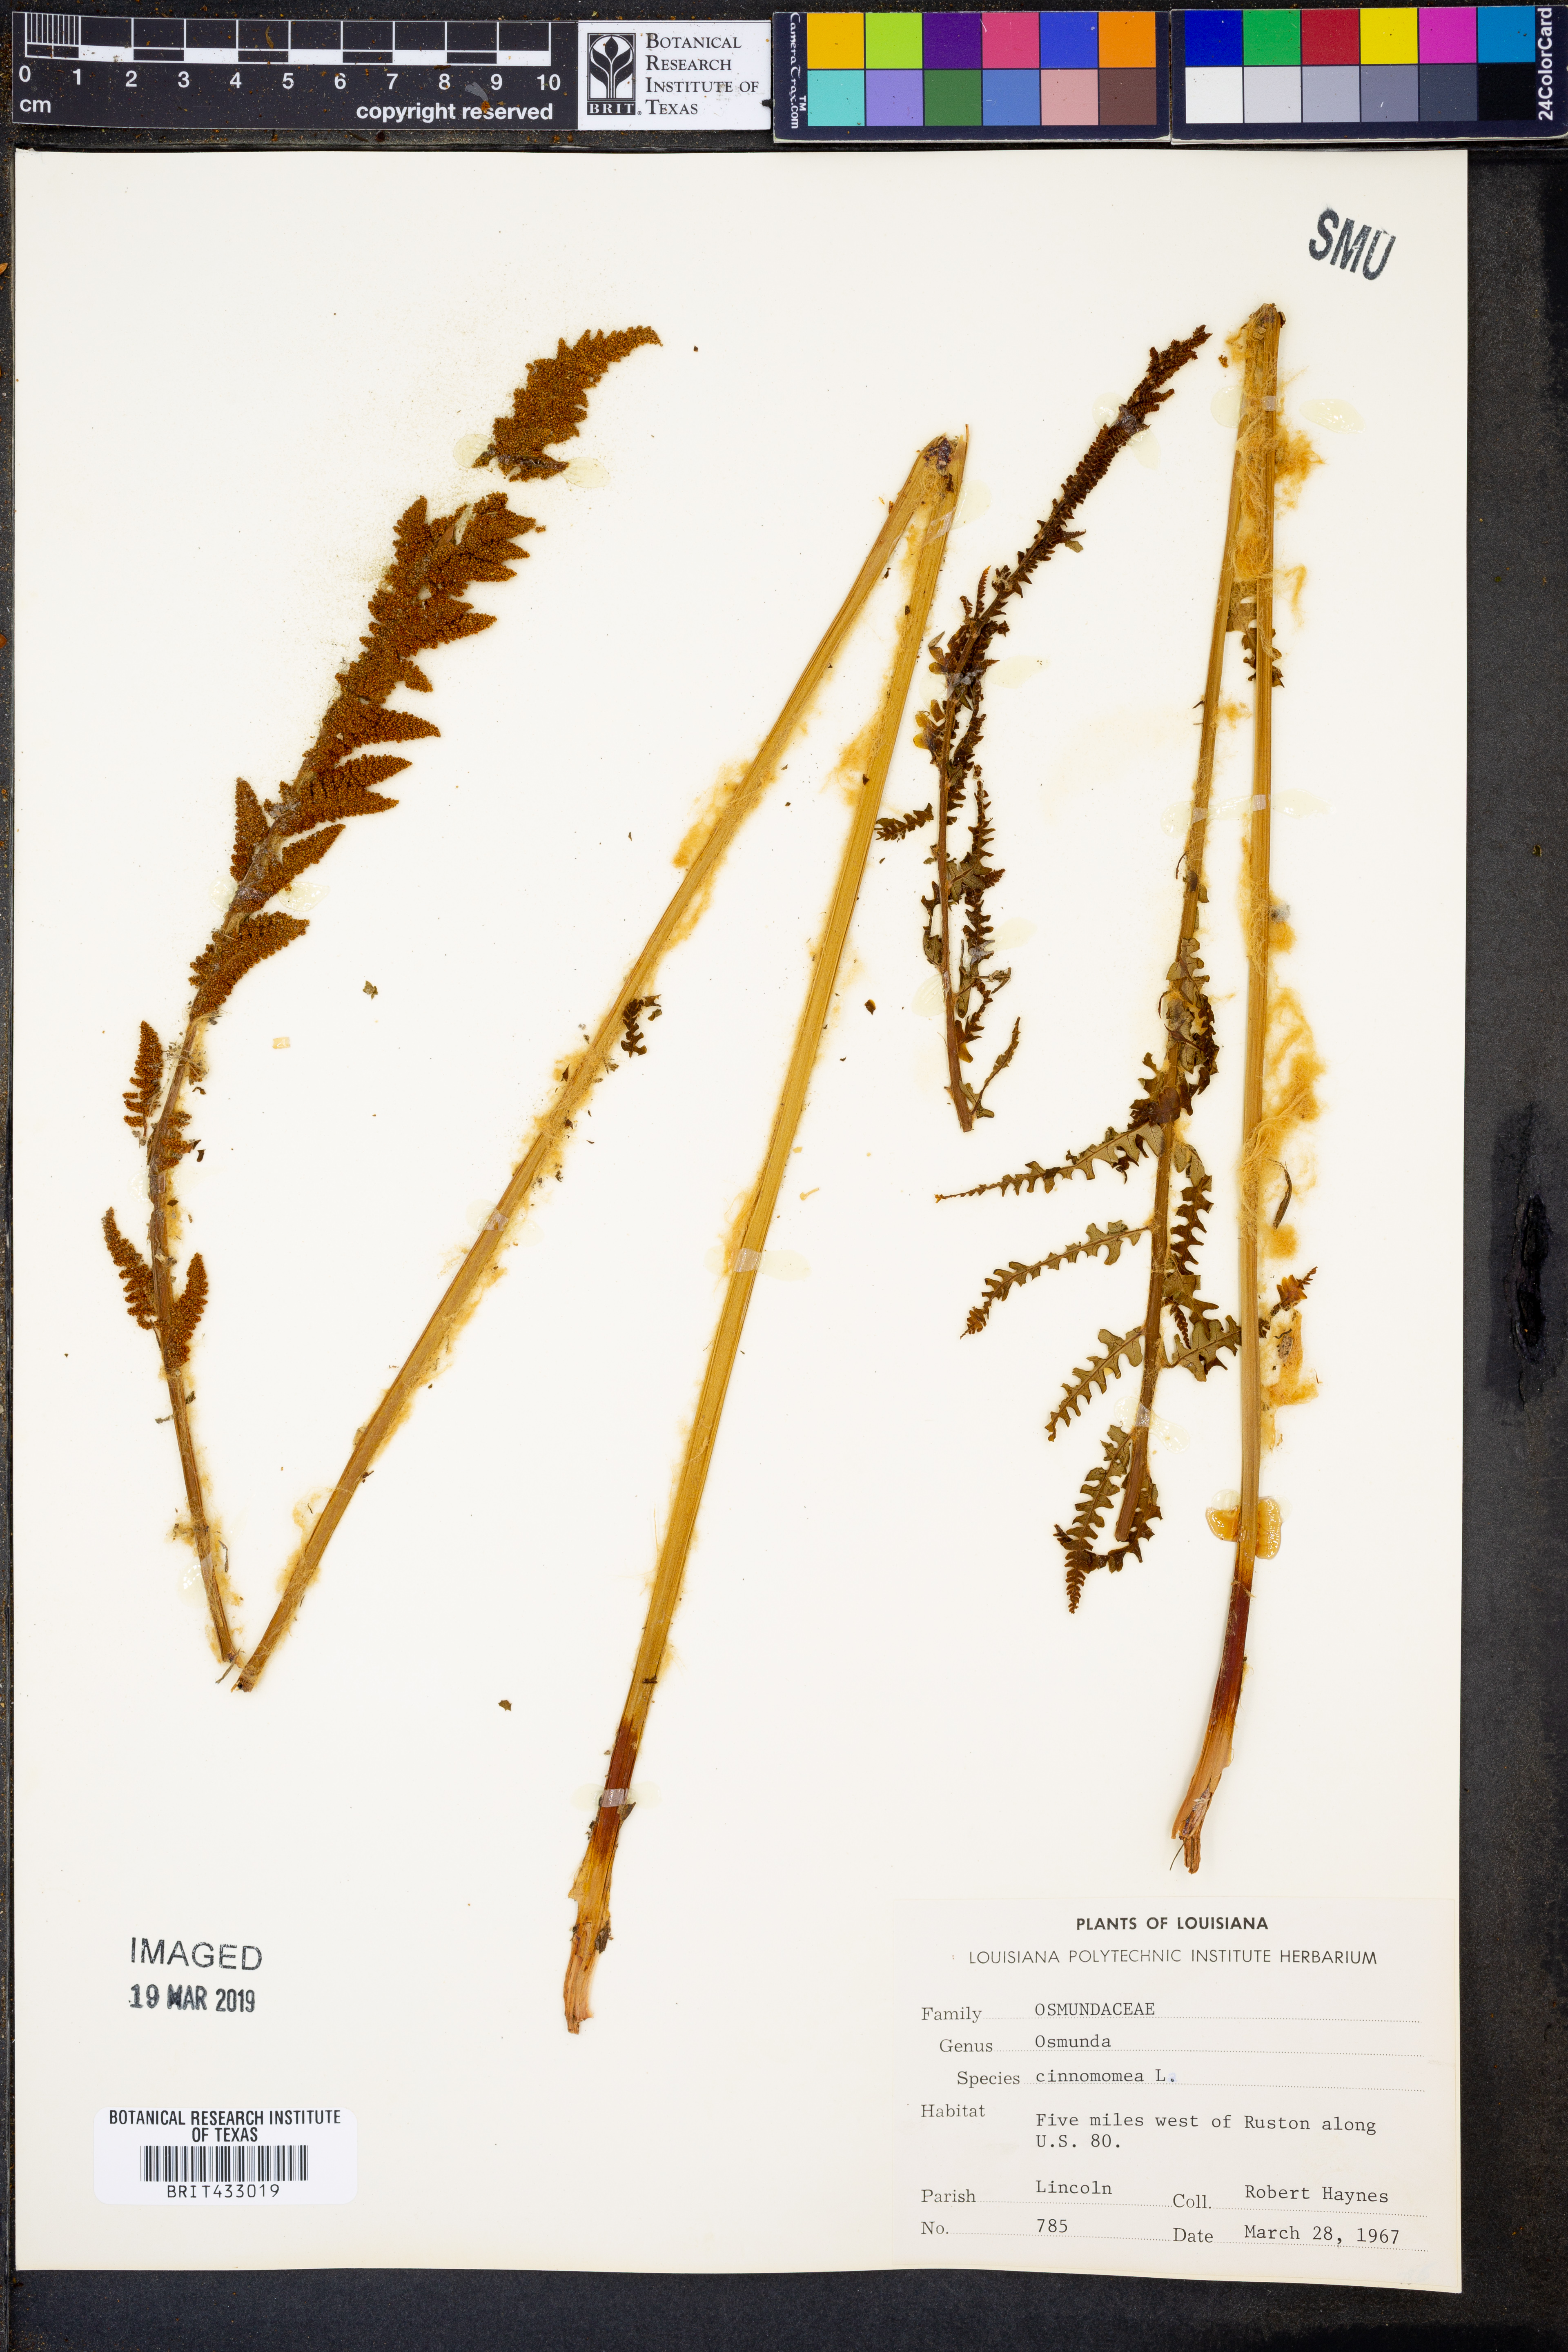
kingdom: Plantae
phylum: Tracheophyta
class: Polypodiopsida
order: Osmundales
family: Osmundaceae
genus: Osmundastrum
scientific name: Osmundastrum cinnamomeum
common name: Cinnamon fern
